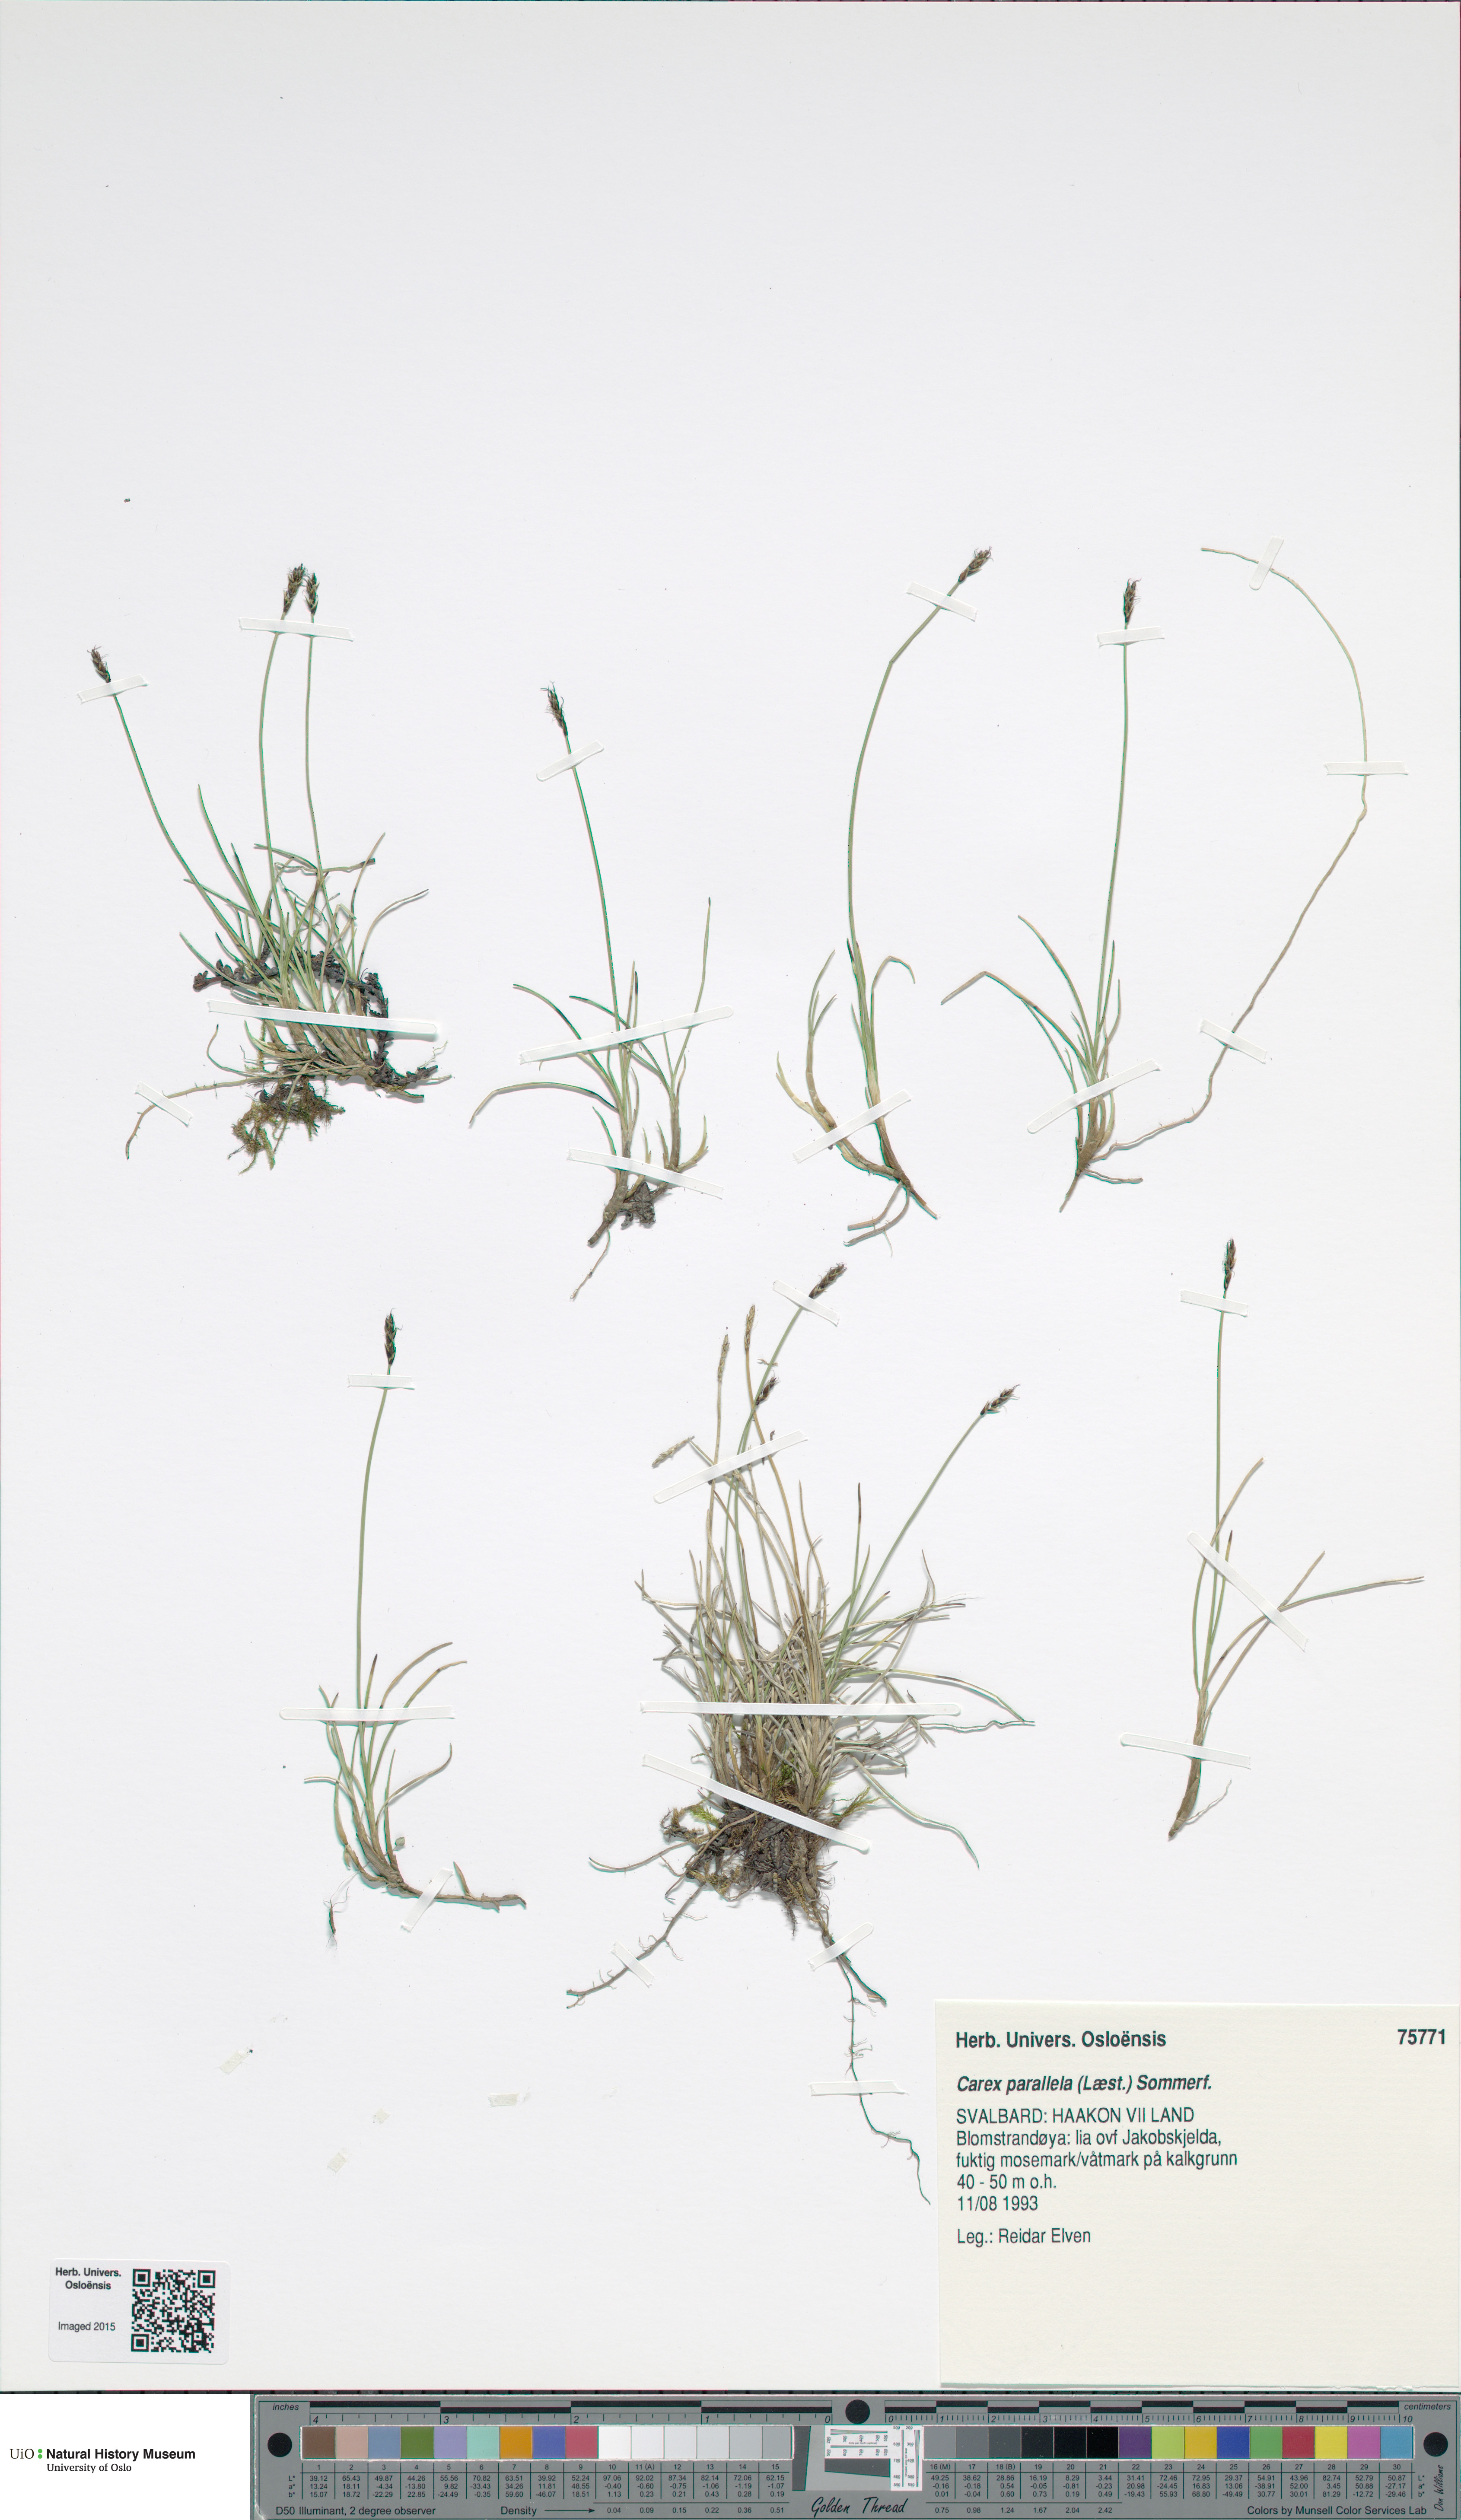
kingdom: Plantae
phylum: Tracheophyta
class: Liliopsida
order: Poales
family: Cyperaceae
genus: Carex
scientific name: Carex parallela
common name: Parallel sedge
